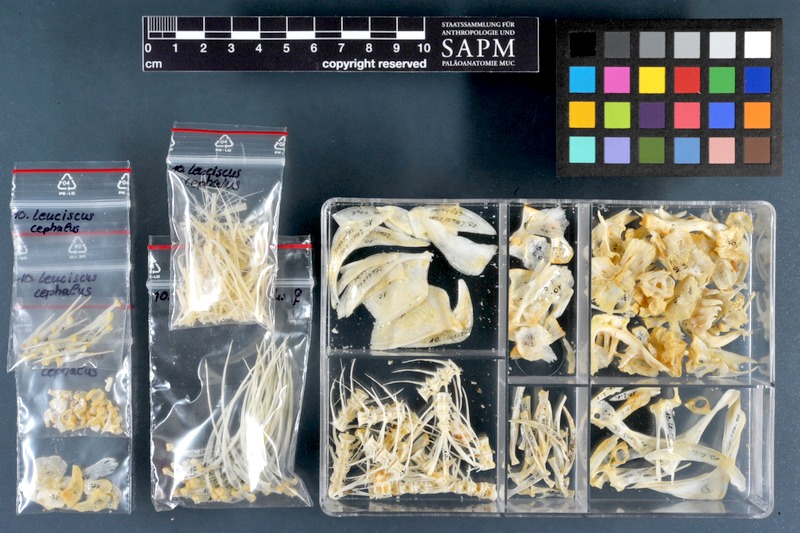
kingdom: Animalia
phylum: Chordata
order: Cypriniformes
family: Cyprinidae
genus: Squalius
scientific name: Squalius cephalus
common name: Chub
